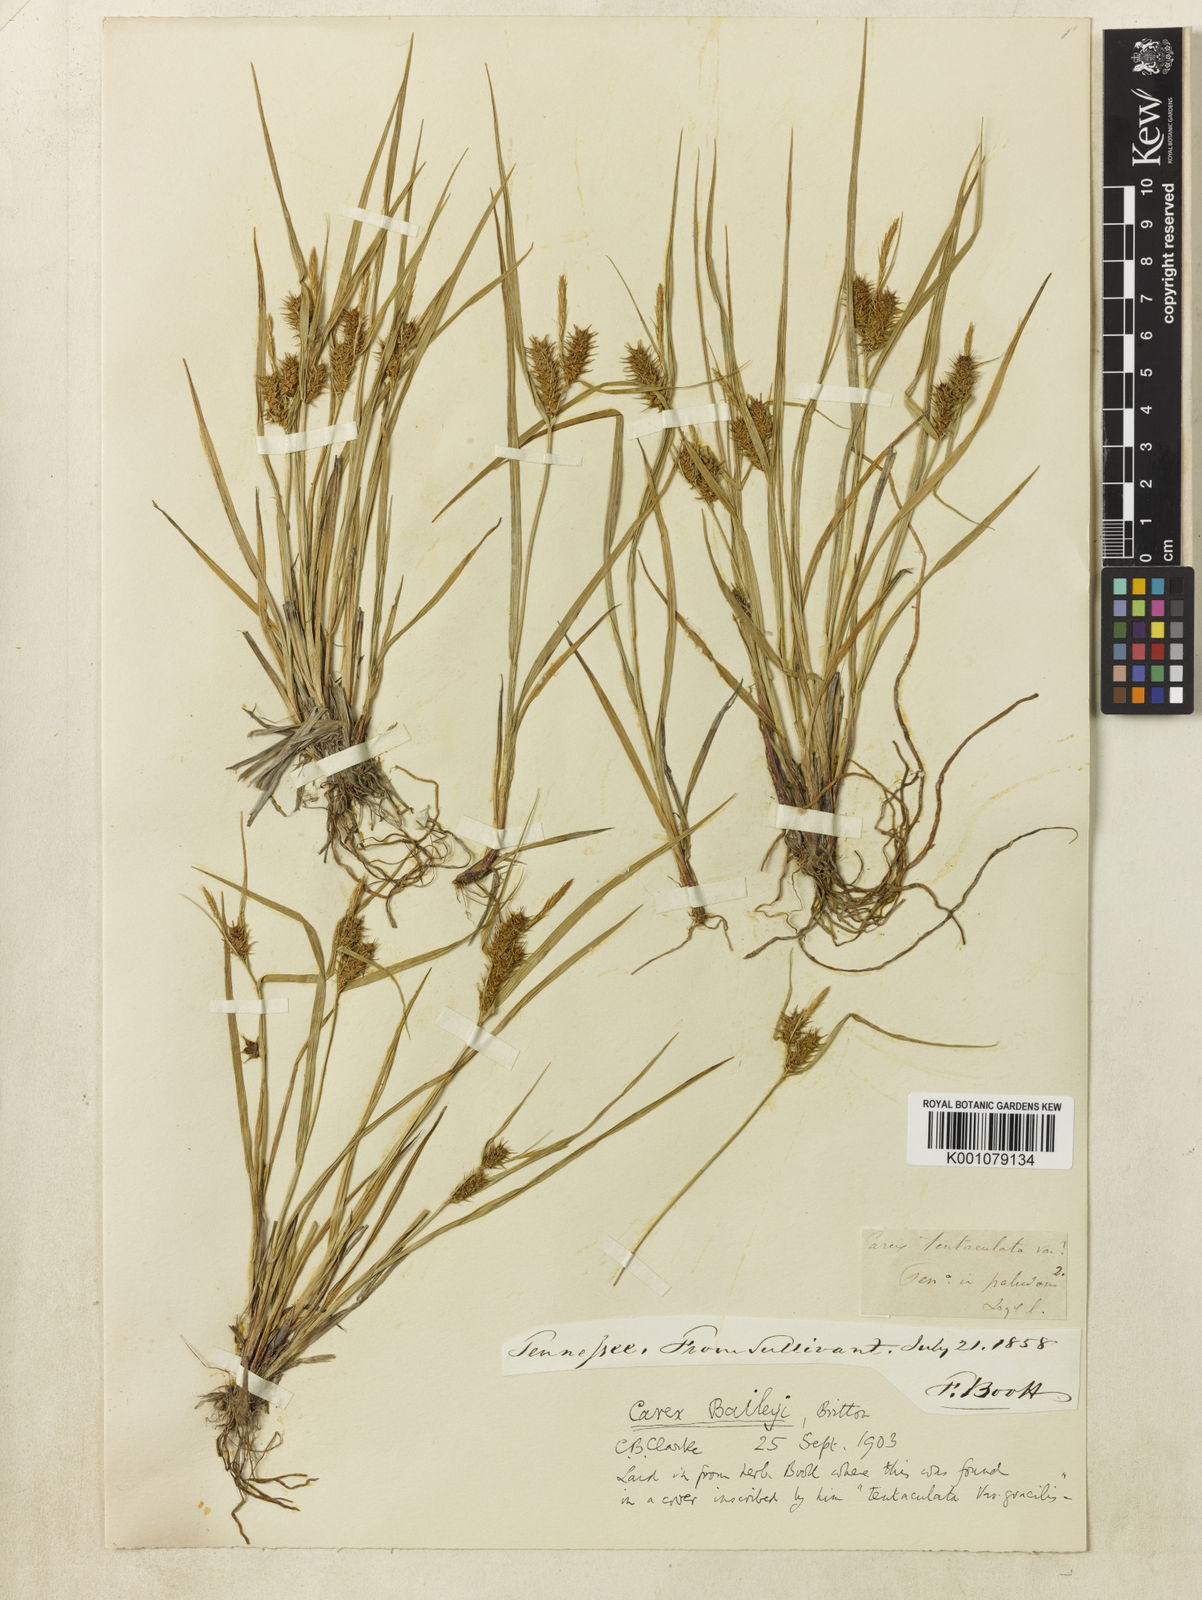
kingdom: Plantae
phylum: Tracheophyta
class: Liliopsida
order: Poales
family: Cyperaceae
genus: Carex
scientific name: Carex baileyi
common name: Bailey's sedge
